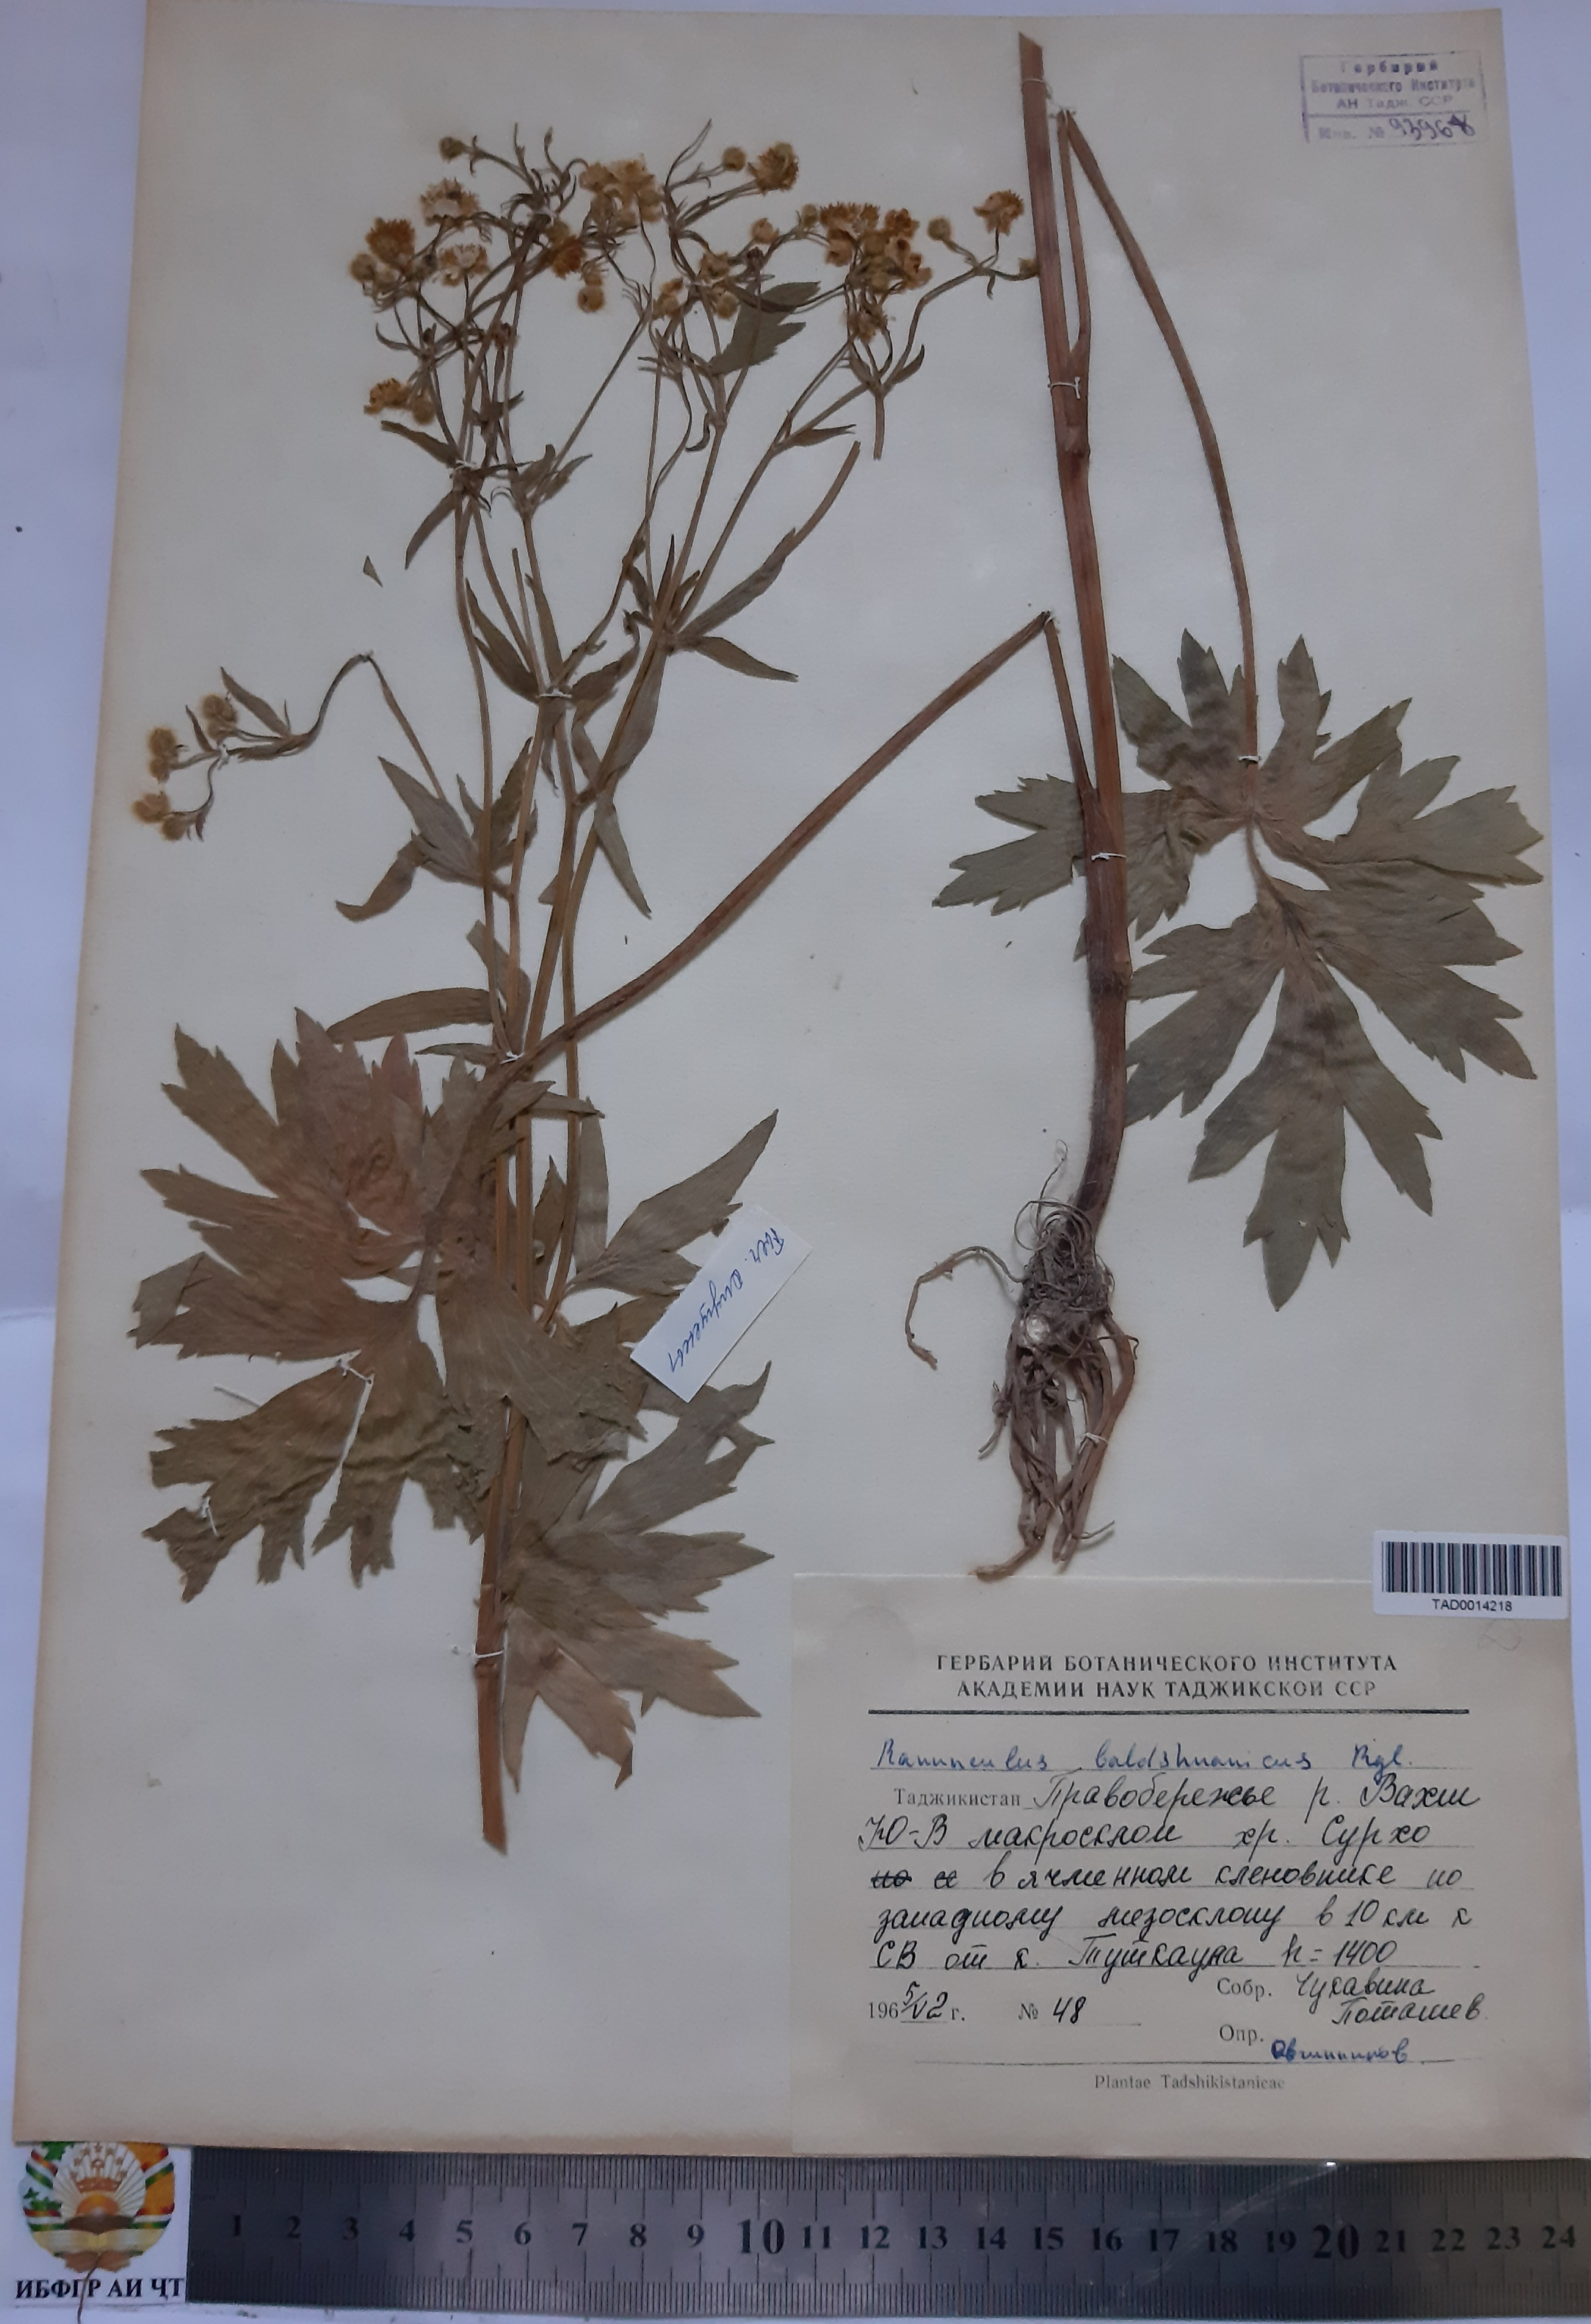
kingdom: Plantae
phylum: Tracheophyta
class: Magnoliopsida
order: Ranunculales
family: Ranunculaceae
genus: Ranunculus
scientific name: Ranunculus baldshuanicus
